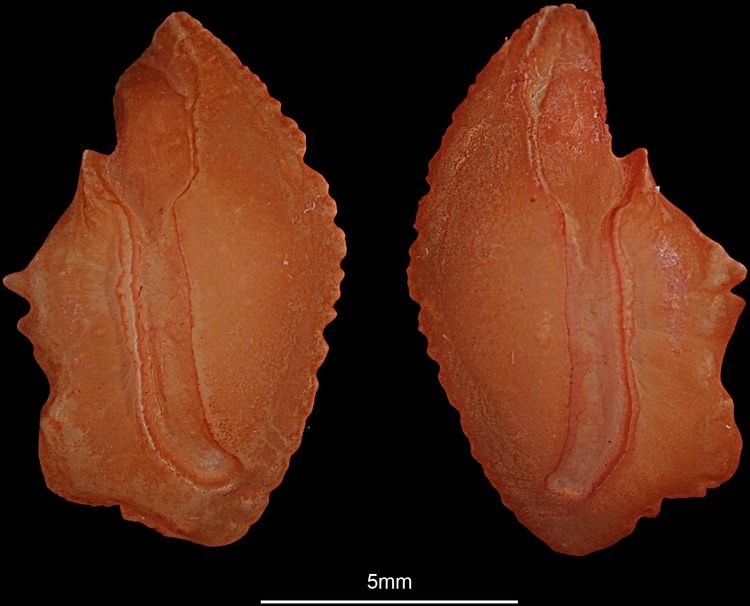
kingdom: Animalia
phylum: Chordata
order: Perciformes
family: Sparidae
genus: Pagellus
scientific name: Pagellus natalensis
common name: Natal pandora
